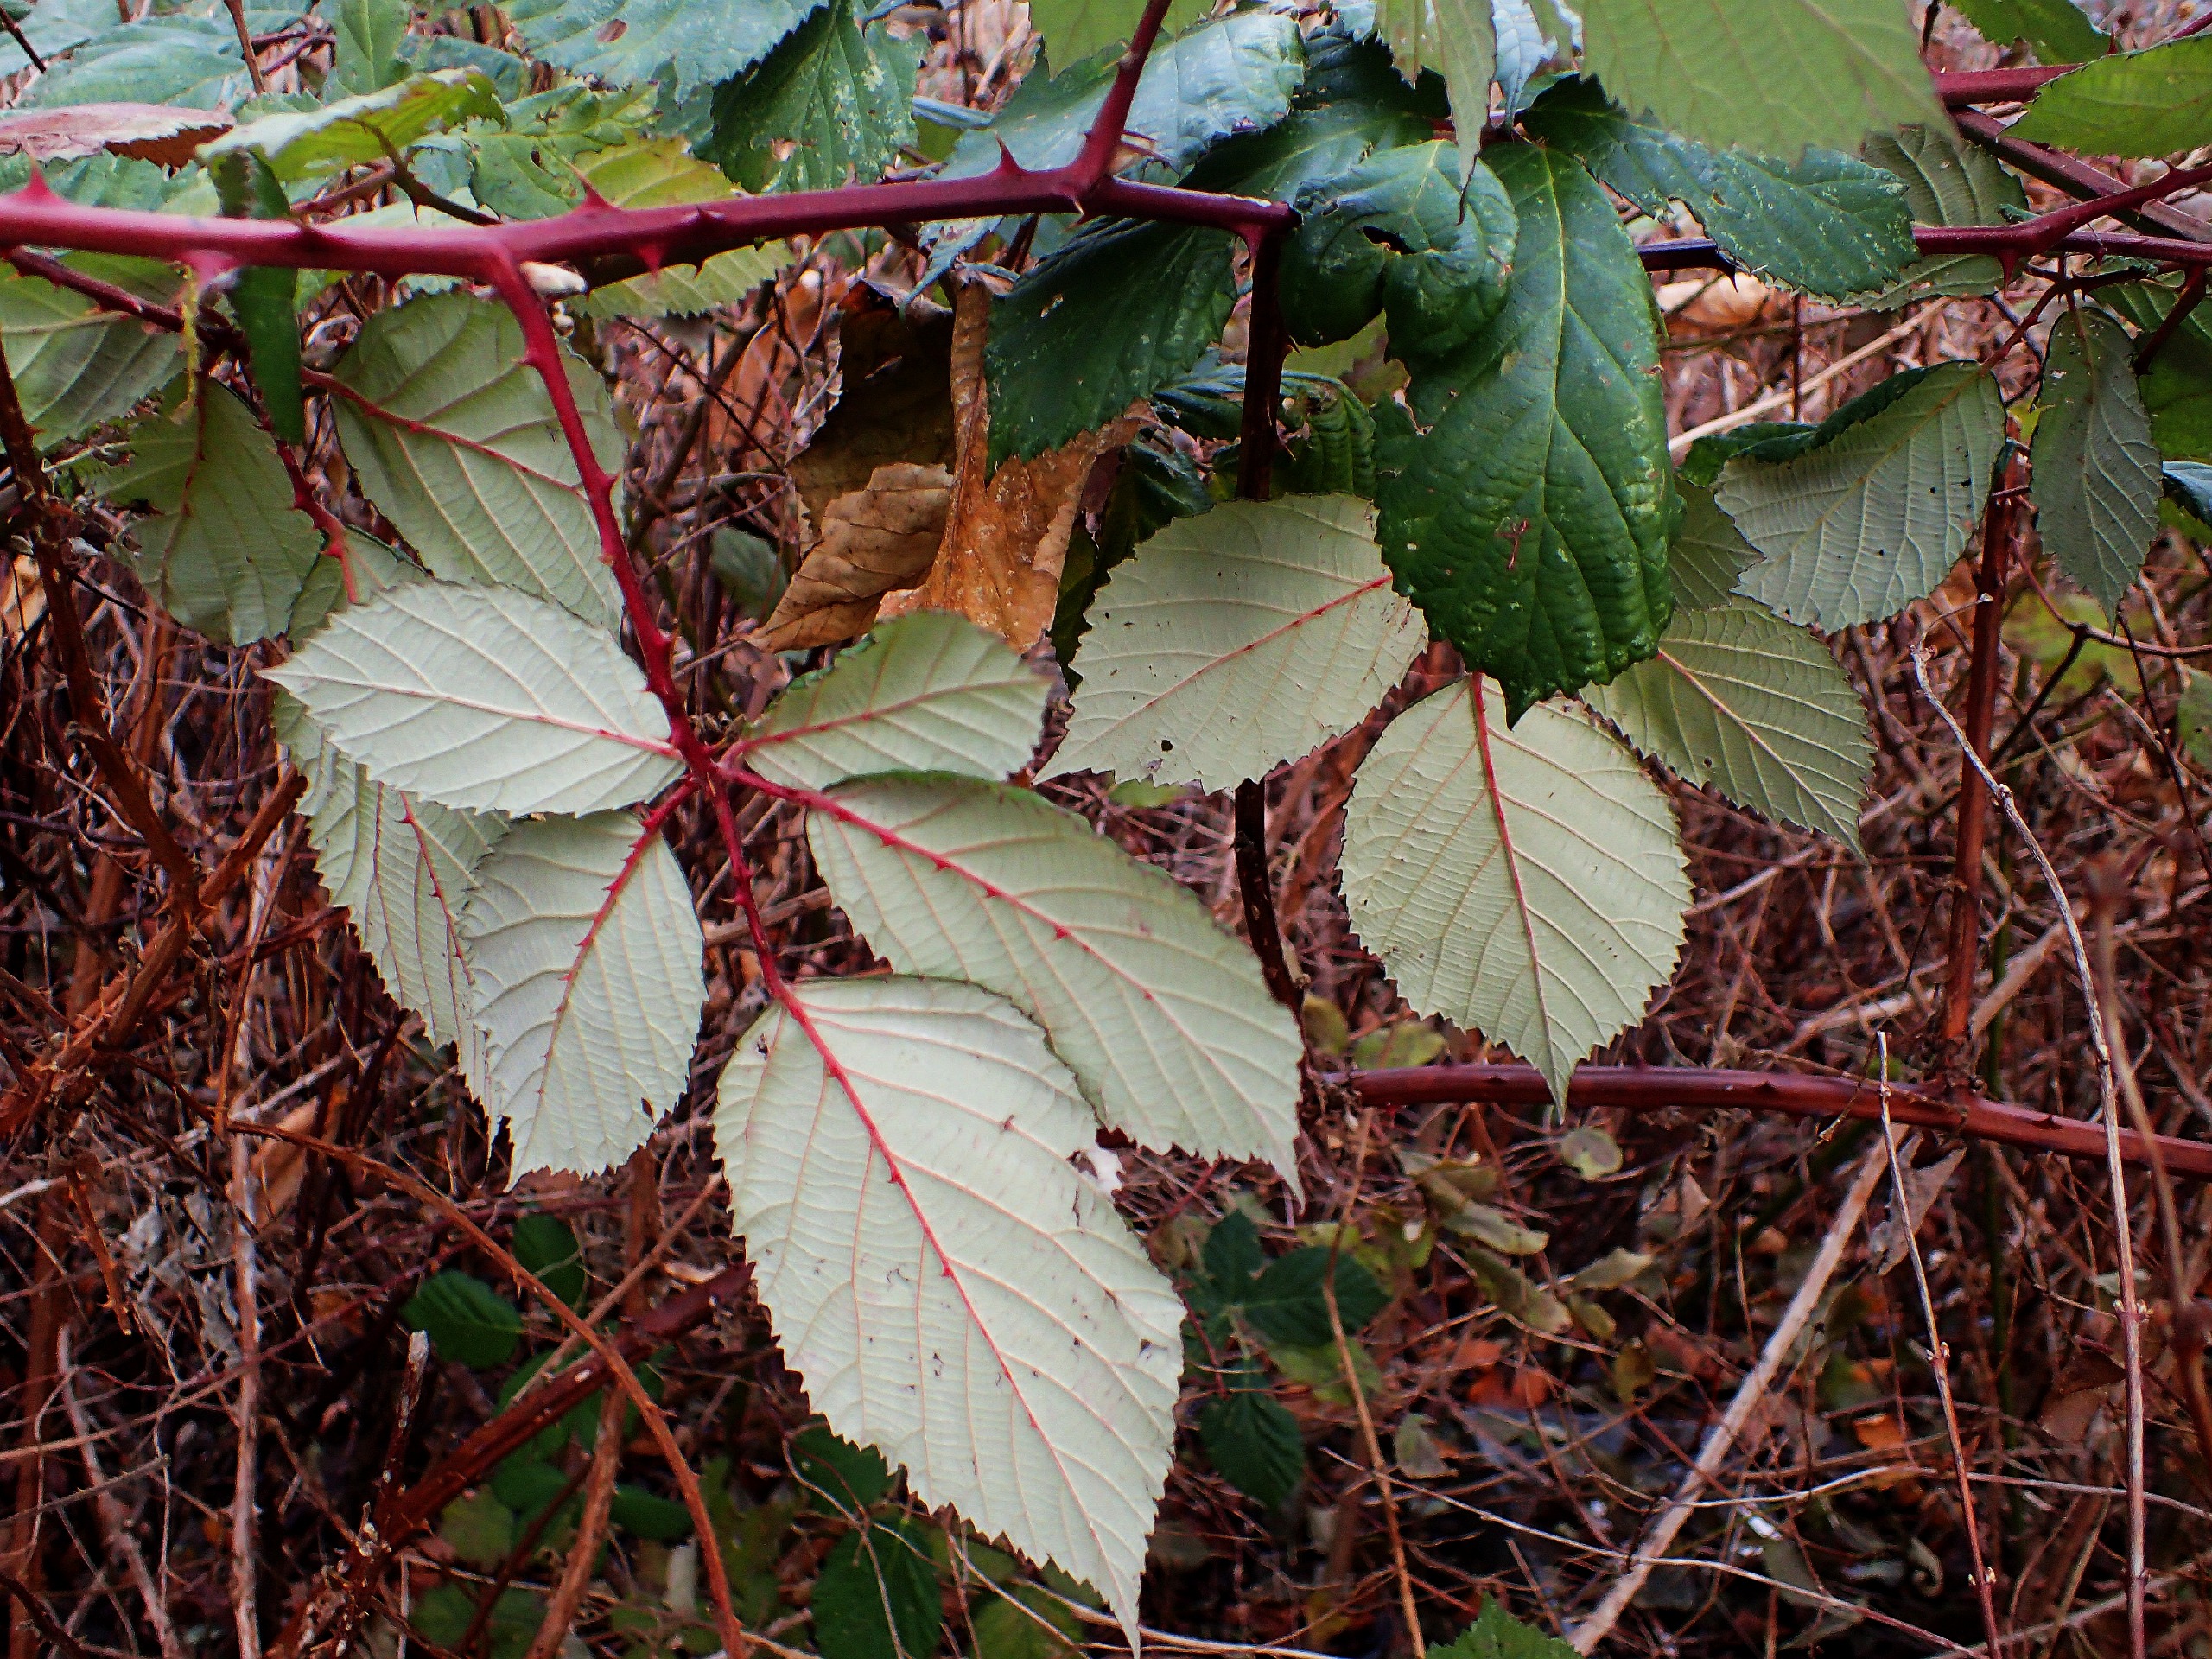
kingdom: Plantae
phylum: Tracheophyta
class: Magnoliopsida
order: Rosales
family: Rosaceae
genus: Rubus
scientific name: Rubus armeniacus
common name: Armensk brombær
